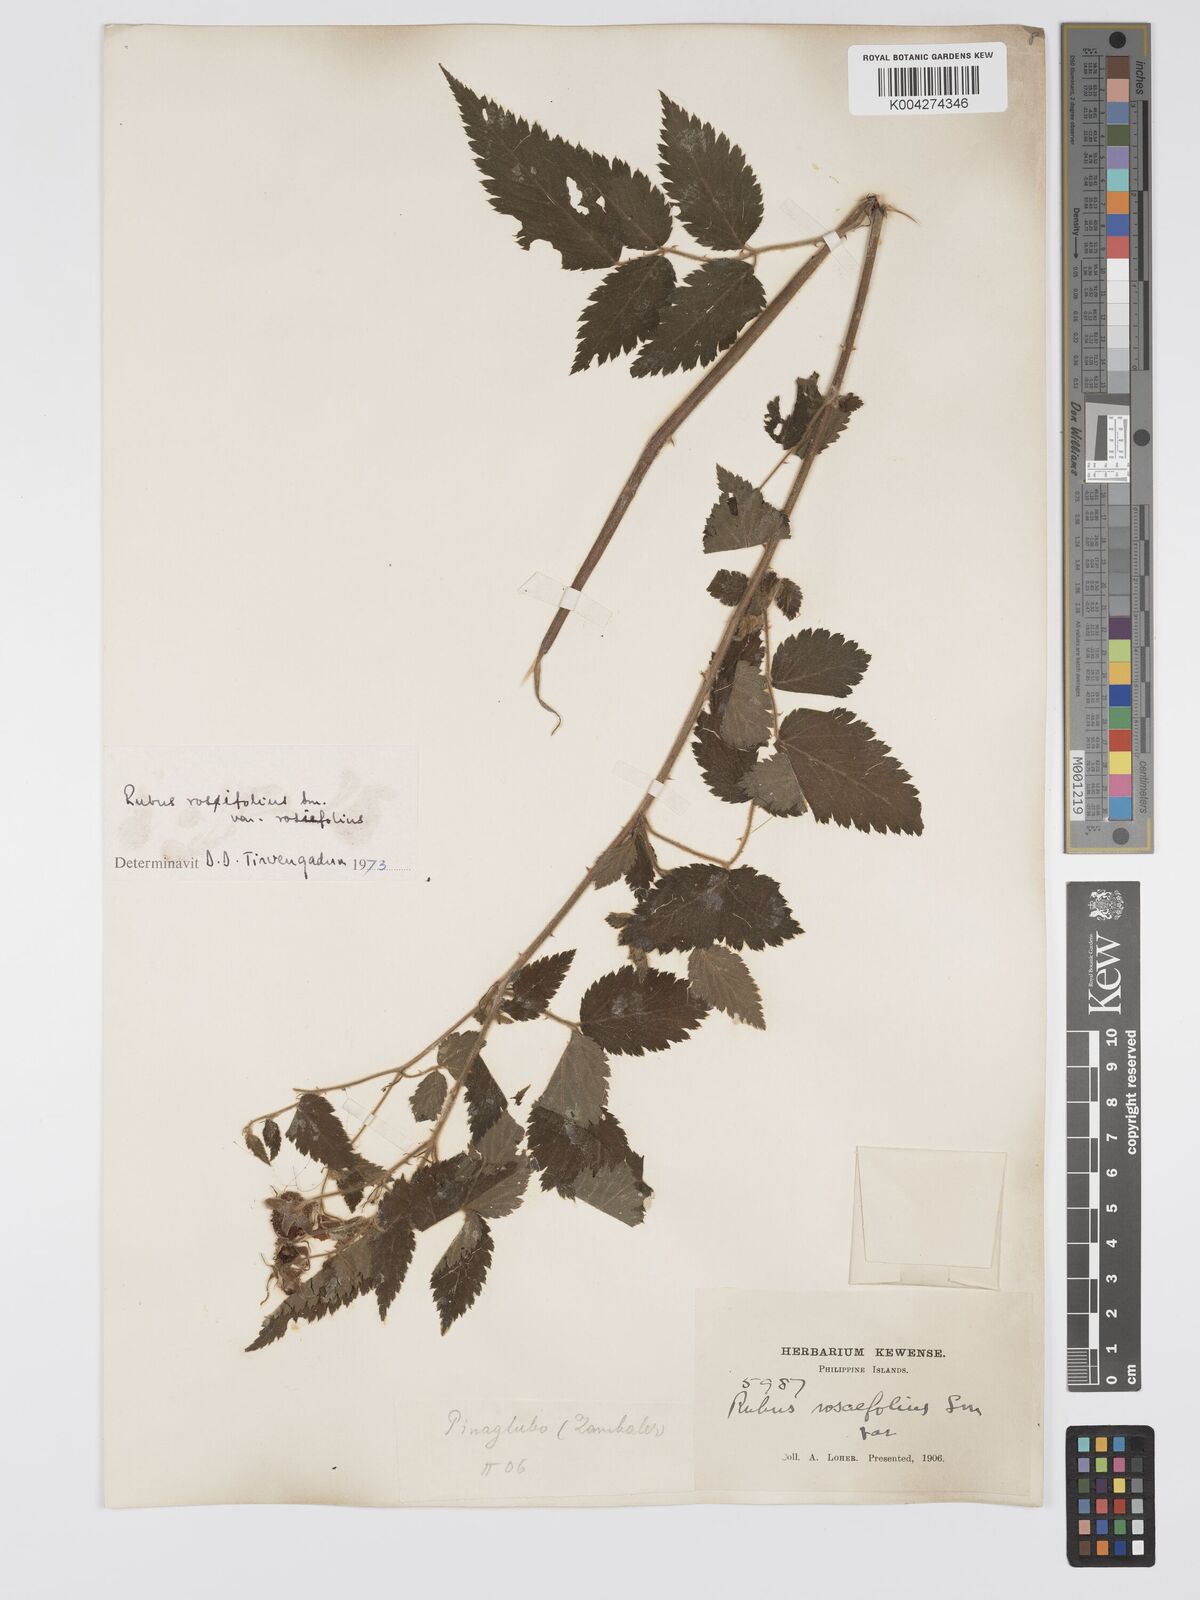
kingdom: Plantae
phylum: Tracheophyta
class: Magnoliopsida
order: Rosales
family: Rosaceae
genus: Rubus
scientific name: Rubus
